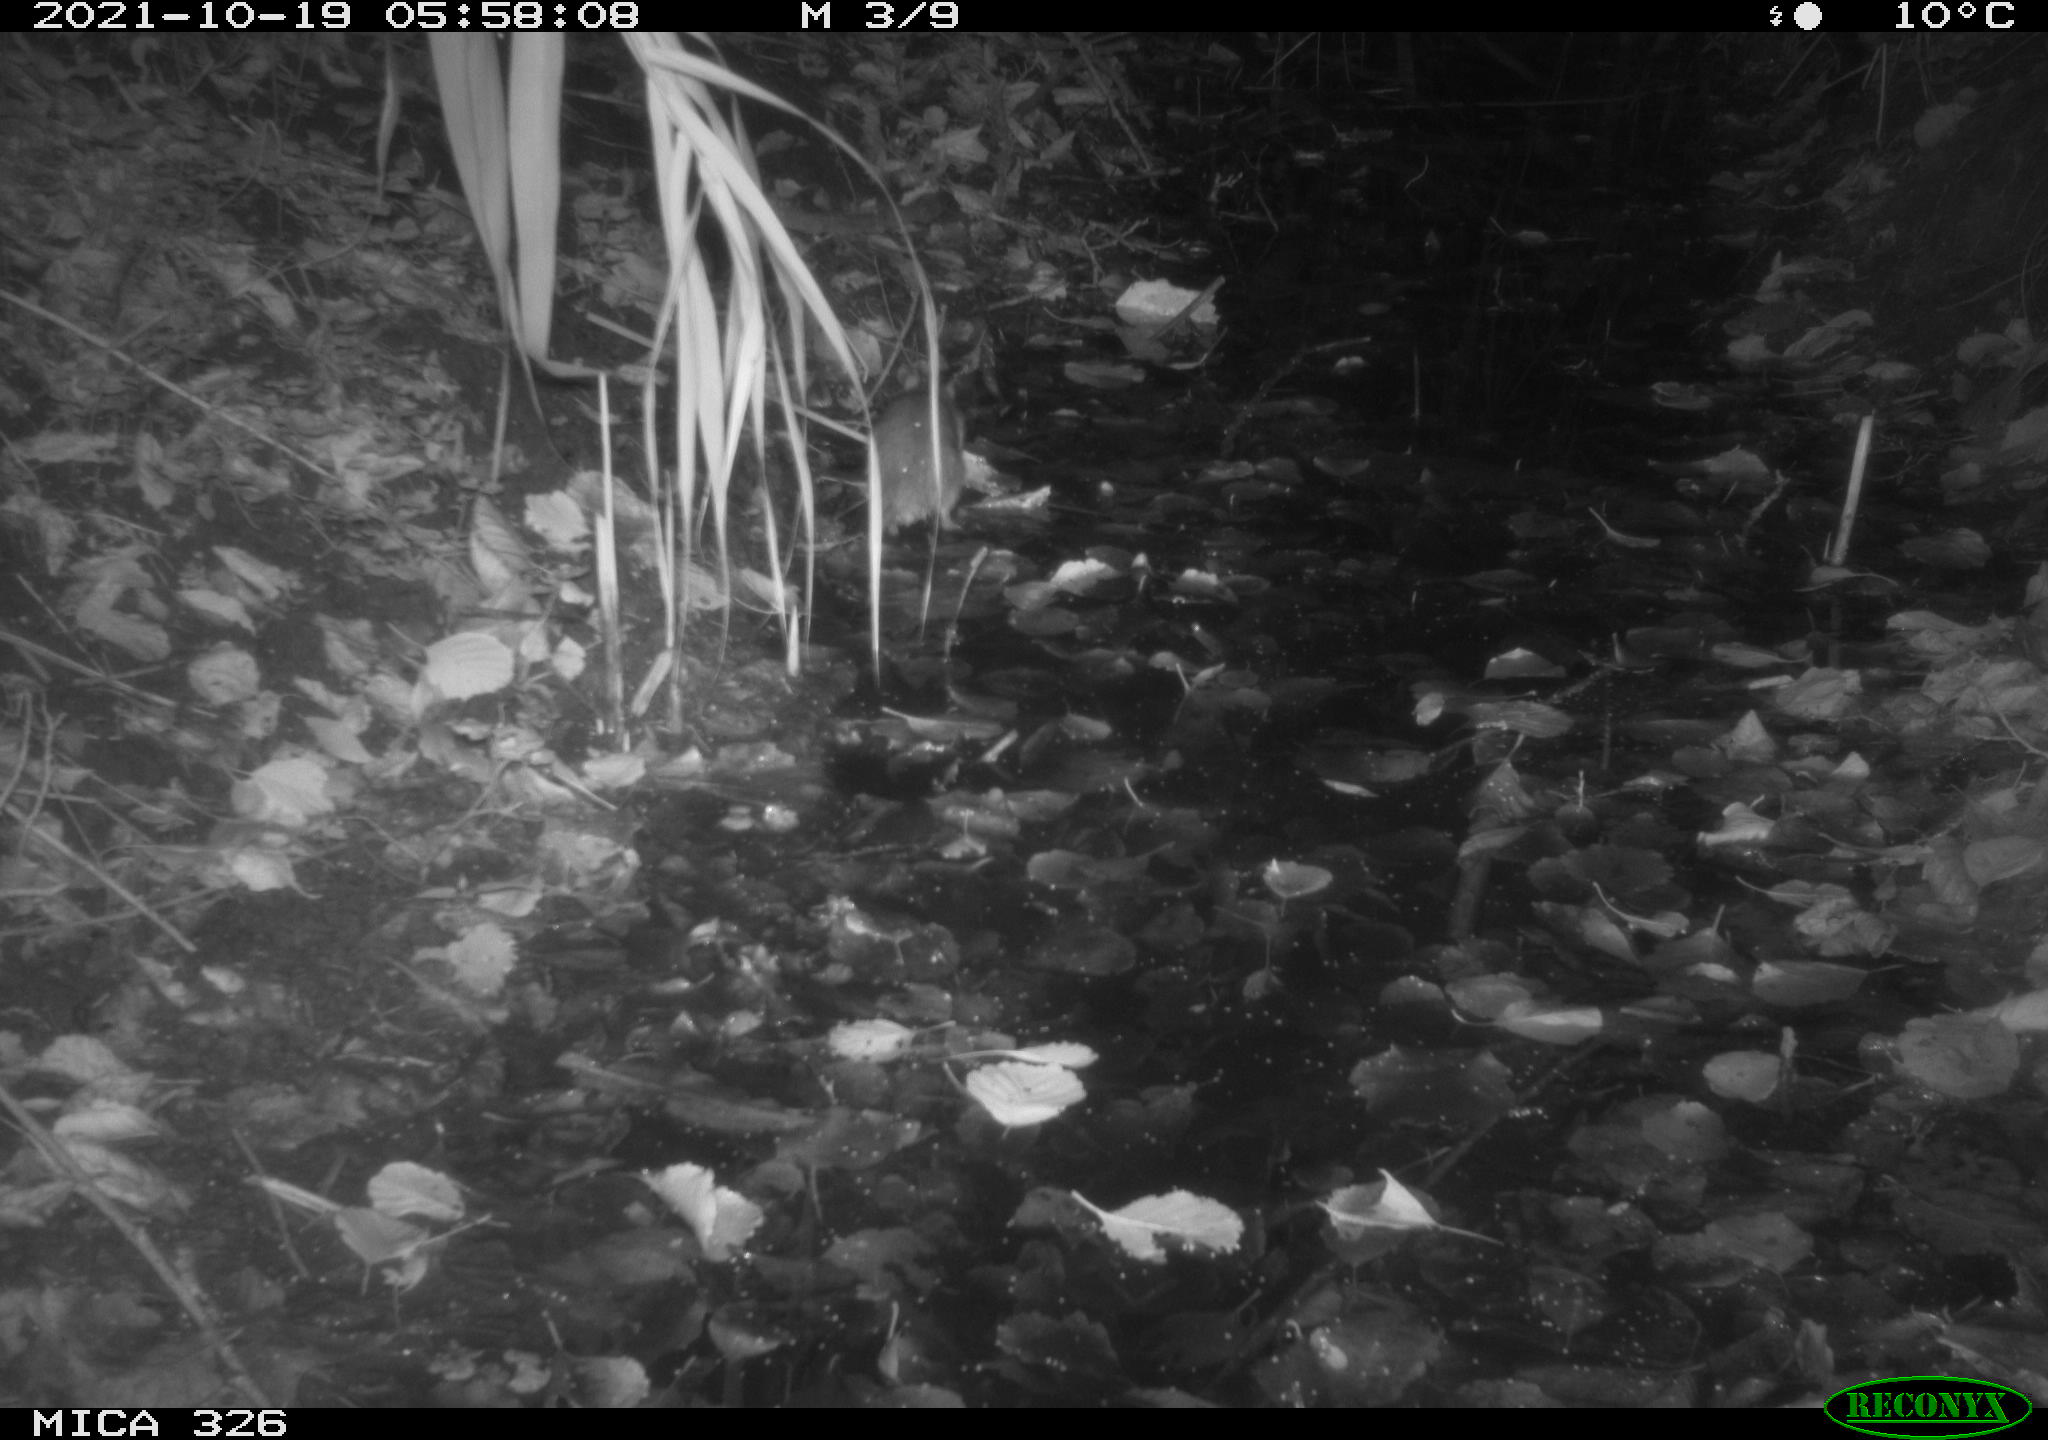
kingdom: Animalia
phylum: Chordata
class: Mammalia
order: Rodentia
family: Muridae
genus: Rattus
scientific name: Rattus norvegicus
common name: Brown rat
